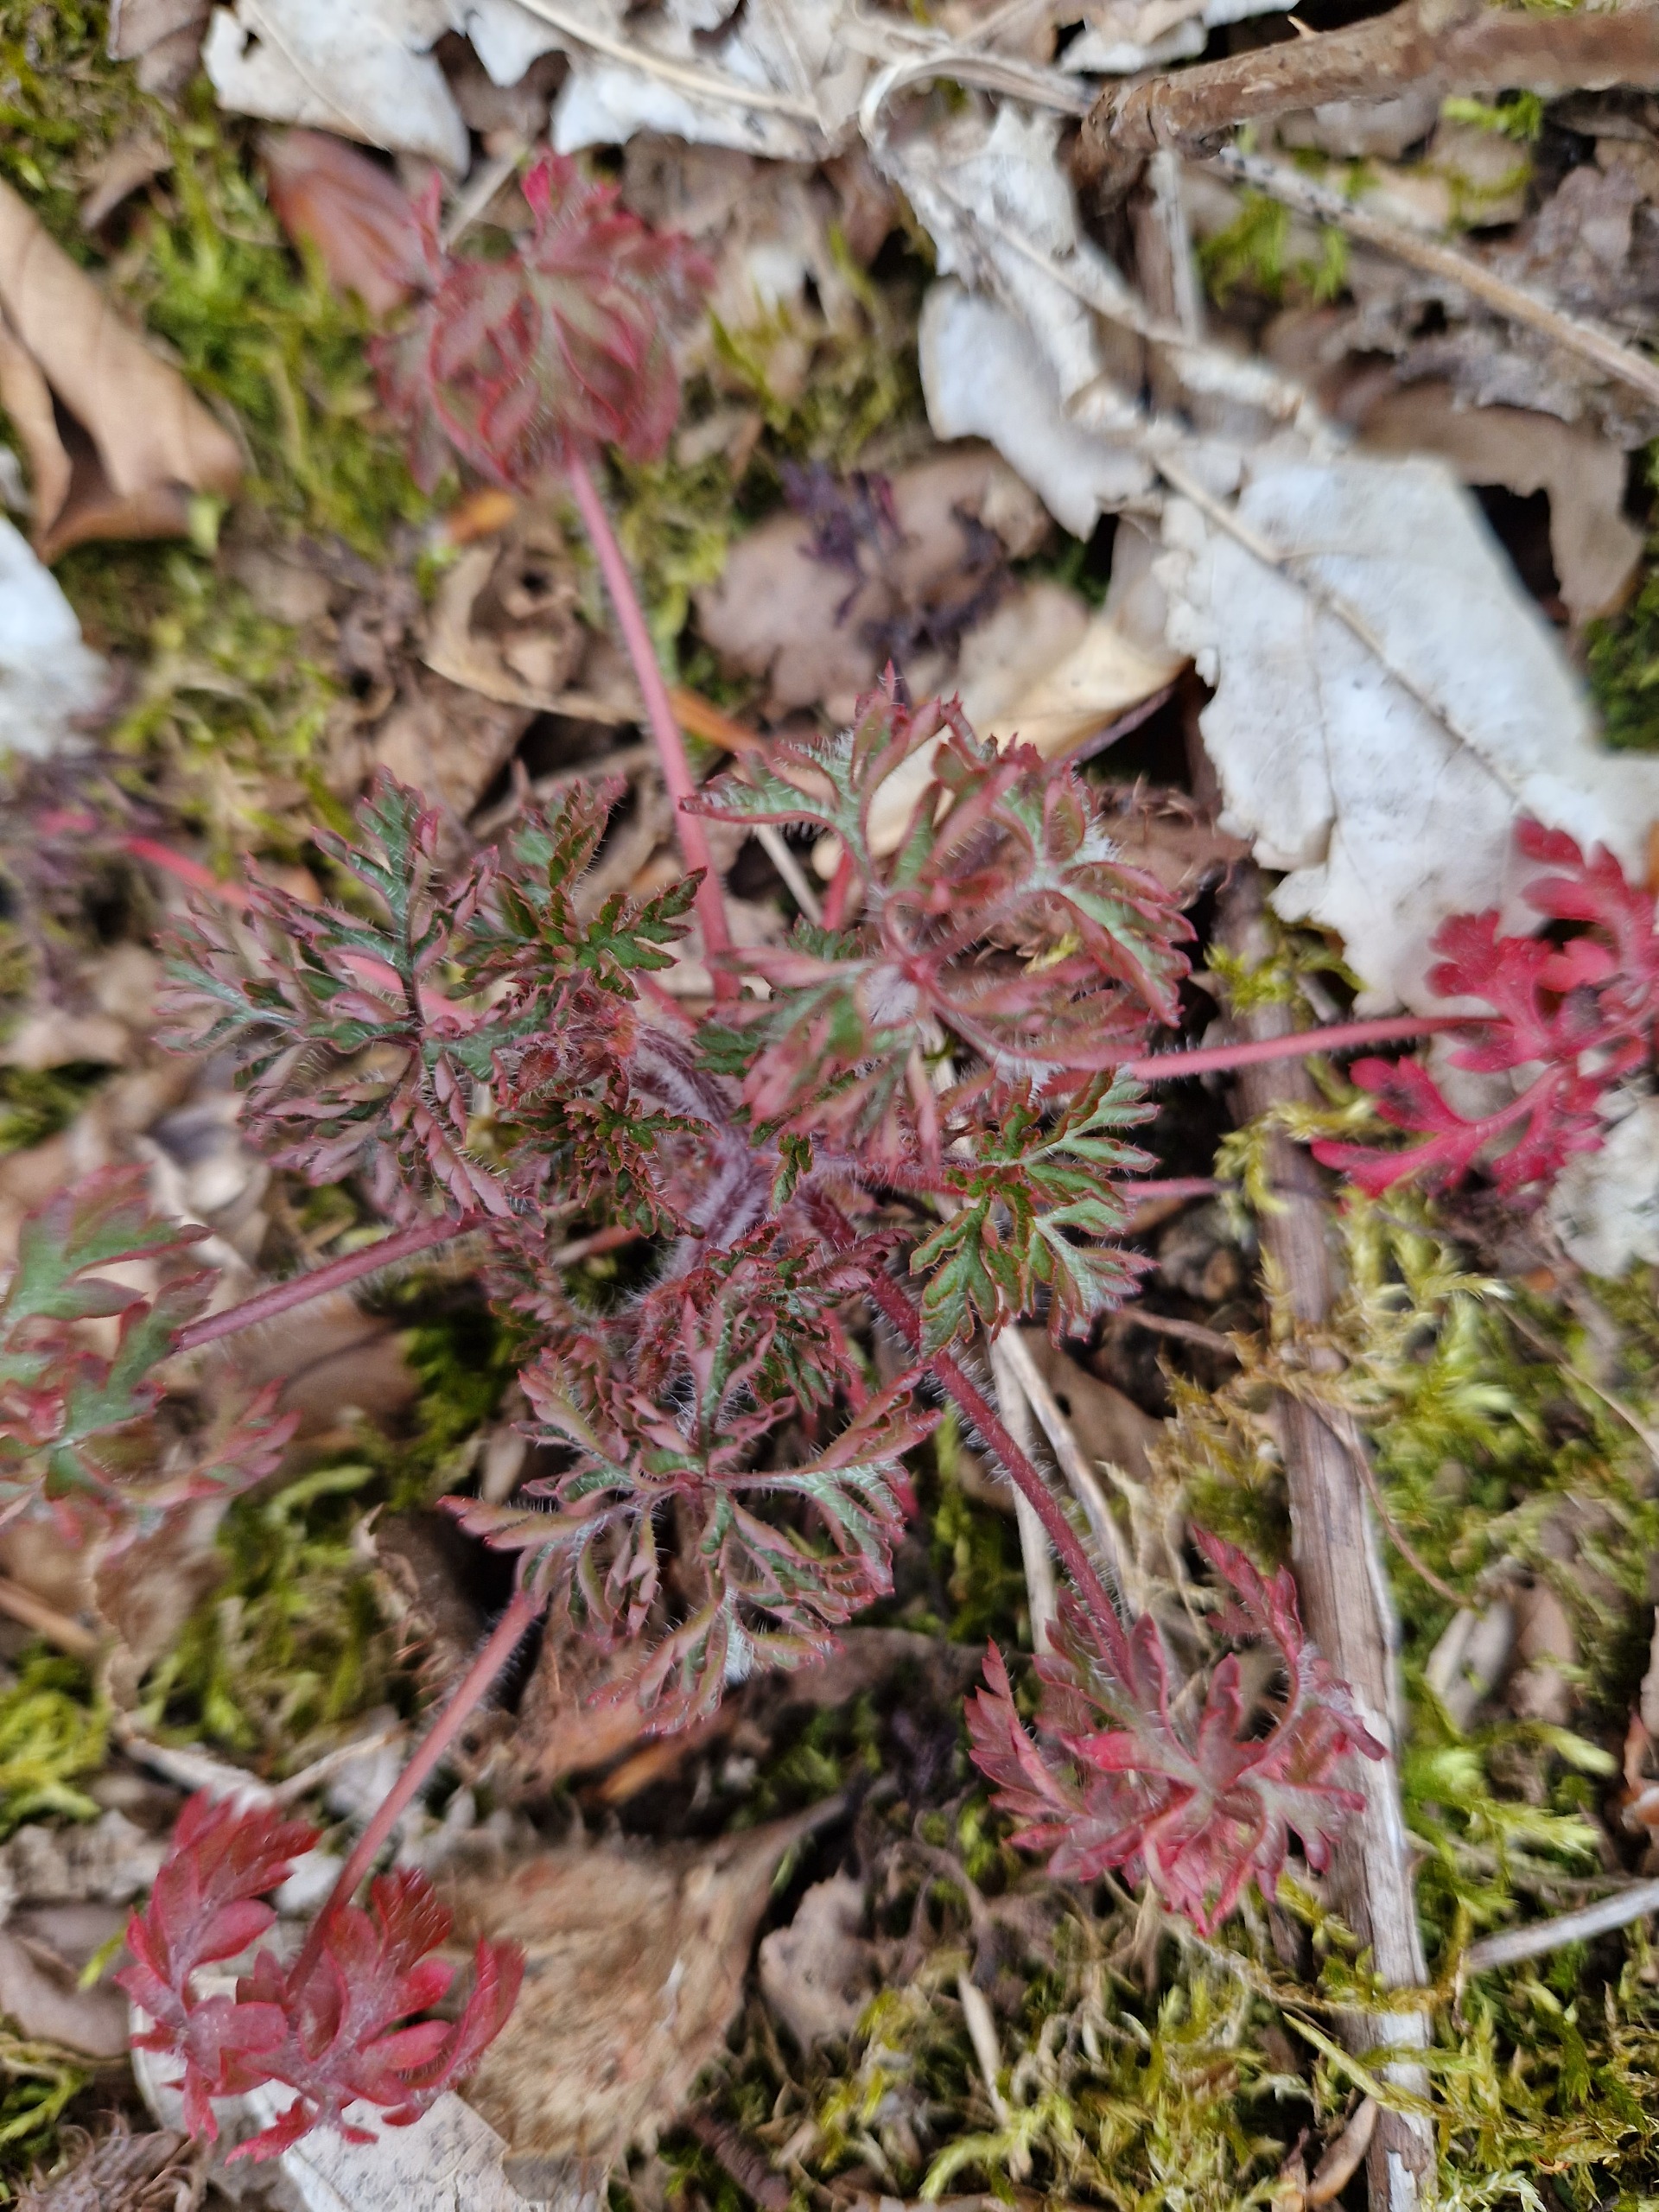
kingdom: Plantae
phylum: Tracheophyta
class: Magnoliopsida
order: Geraniales
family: Geraniaceae
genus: Geranium
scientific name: Geranium robertianum
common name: Stinkende storkenæb
